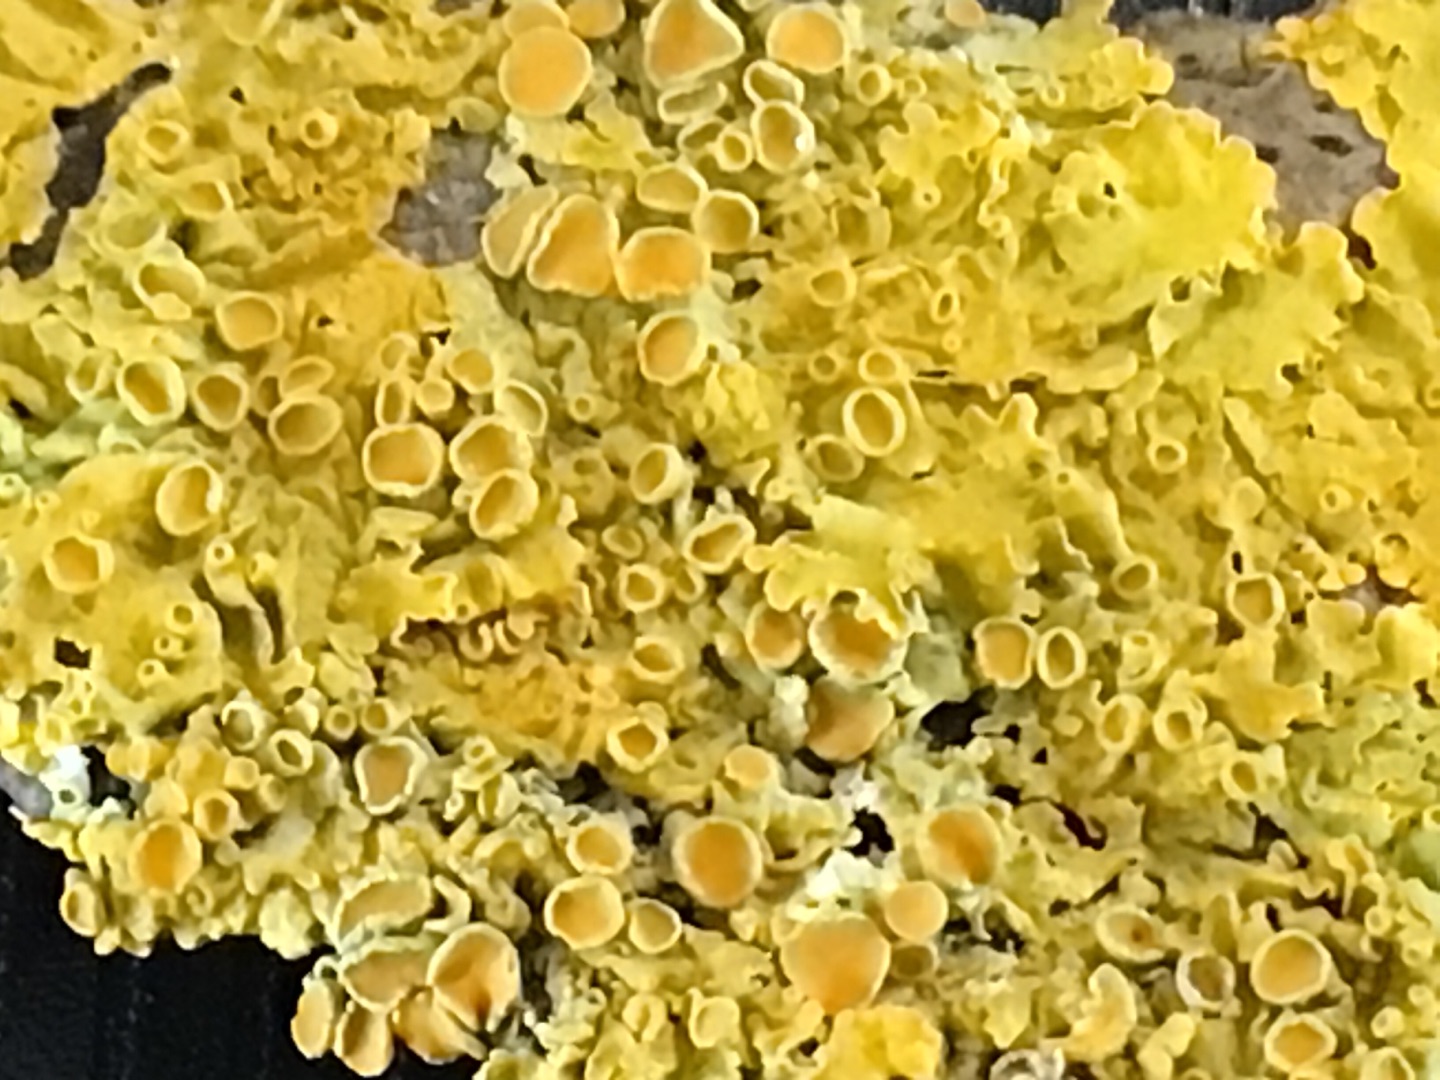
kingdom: Fungi
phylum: Ascomycota
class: Lecanoromycetes
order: Teloschistales
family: Teloschistaceae
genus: Xanthoria
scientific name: Xanthoria parietina
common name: Almindelig væggelav
